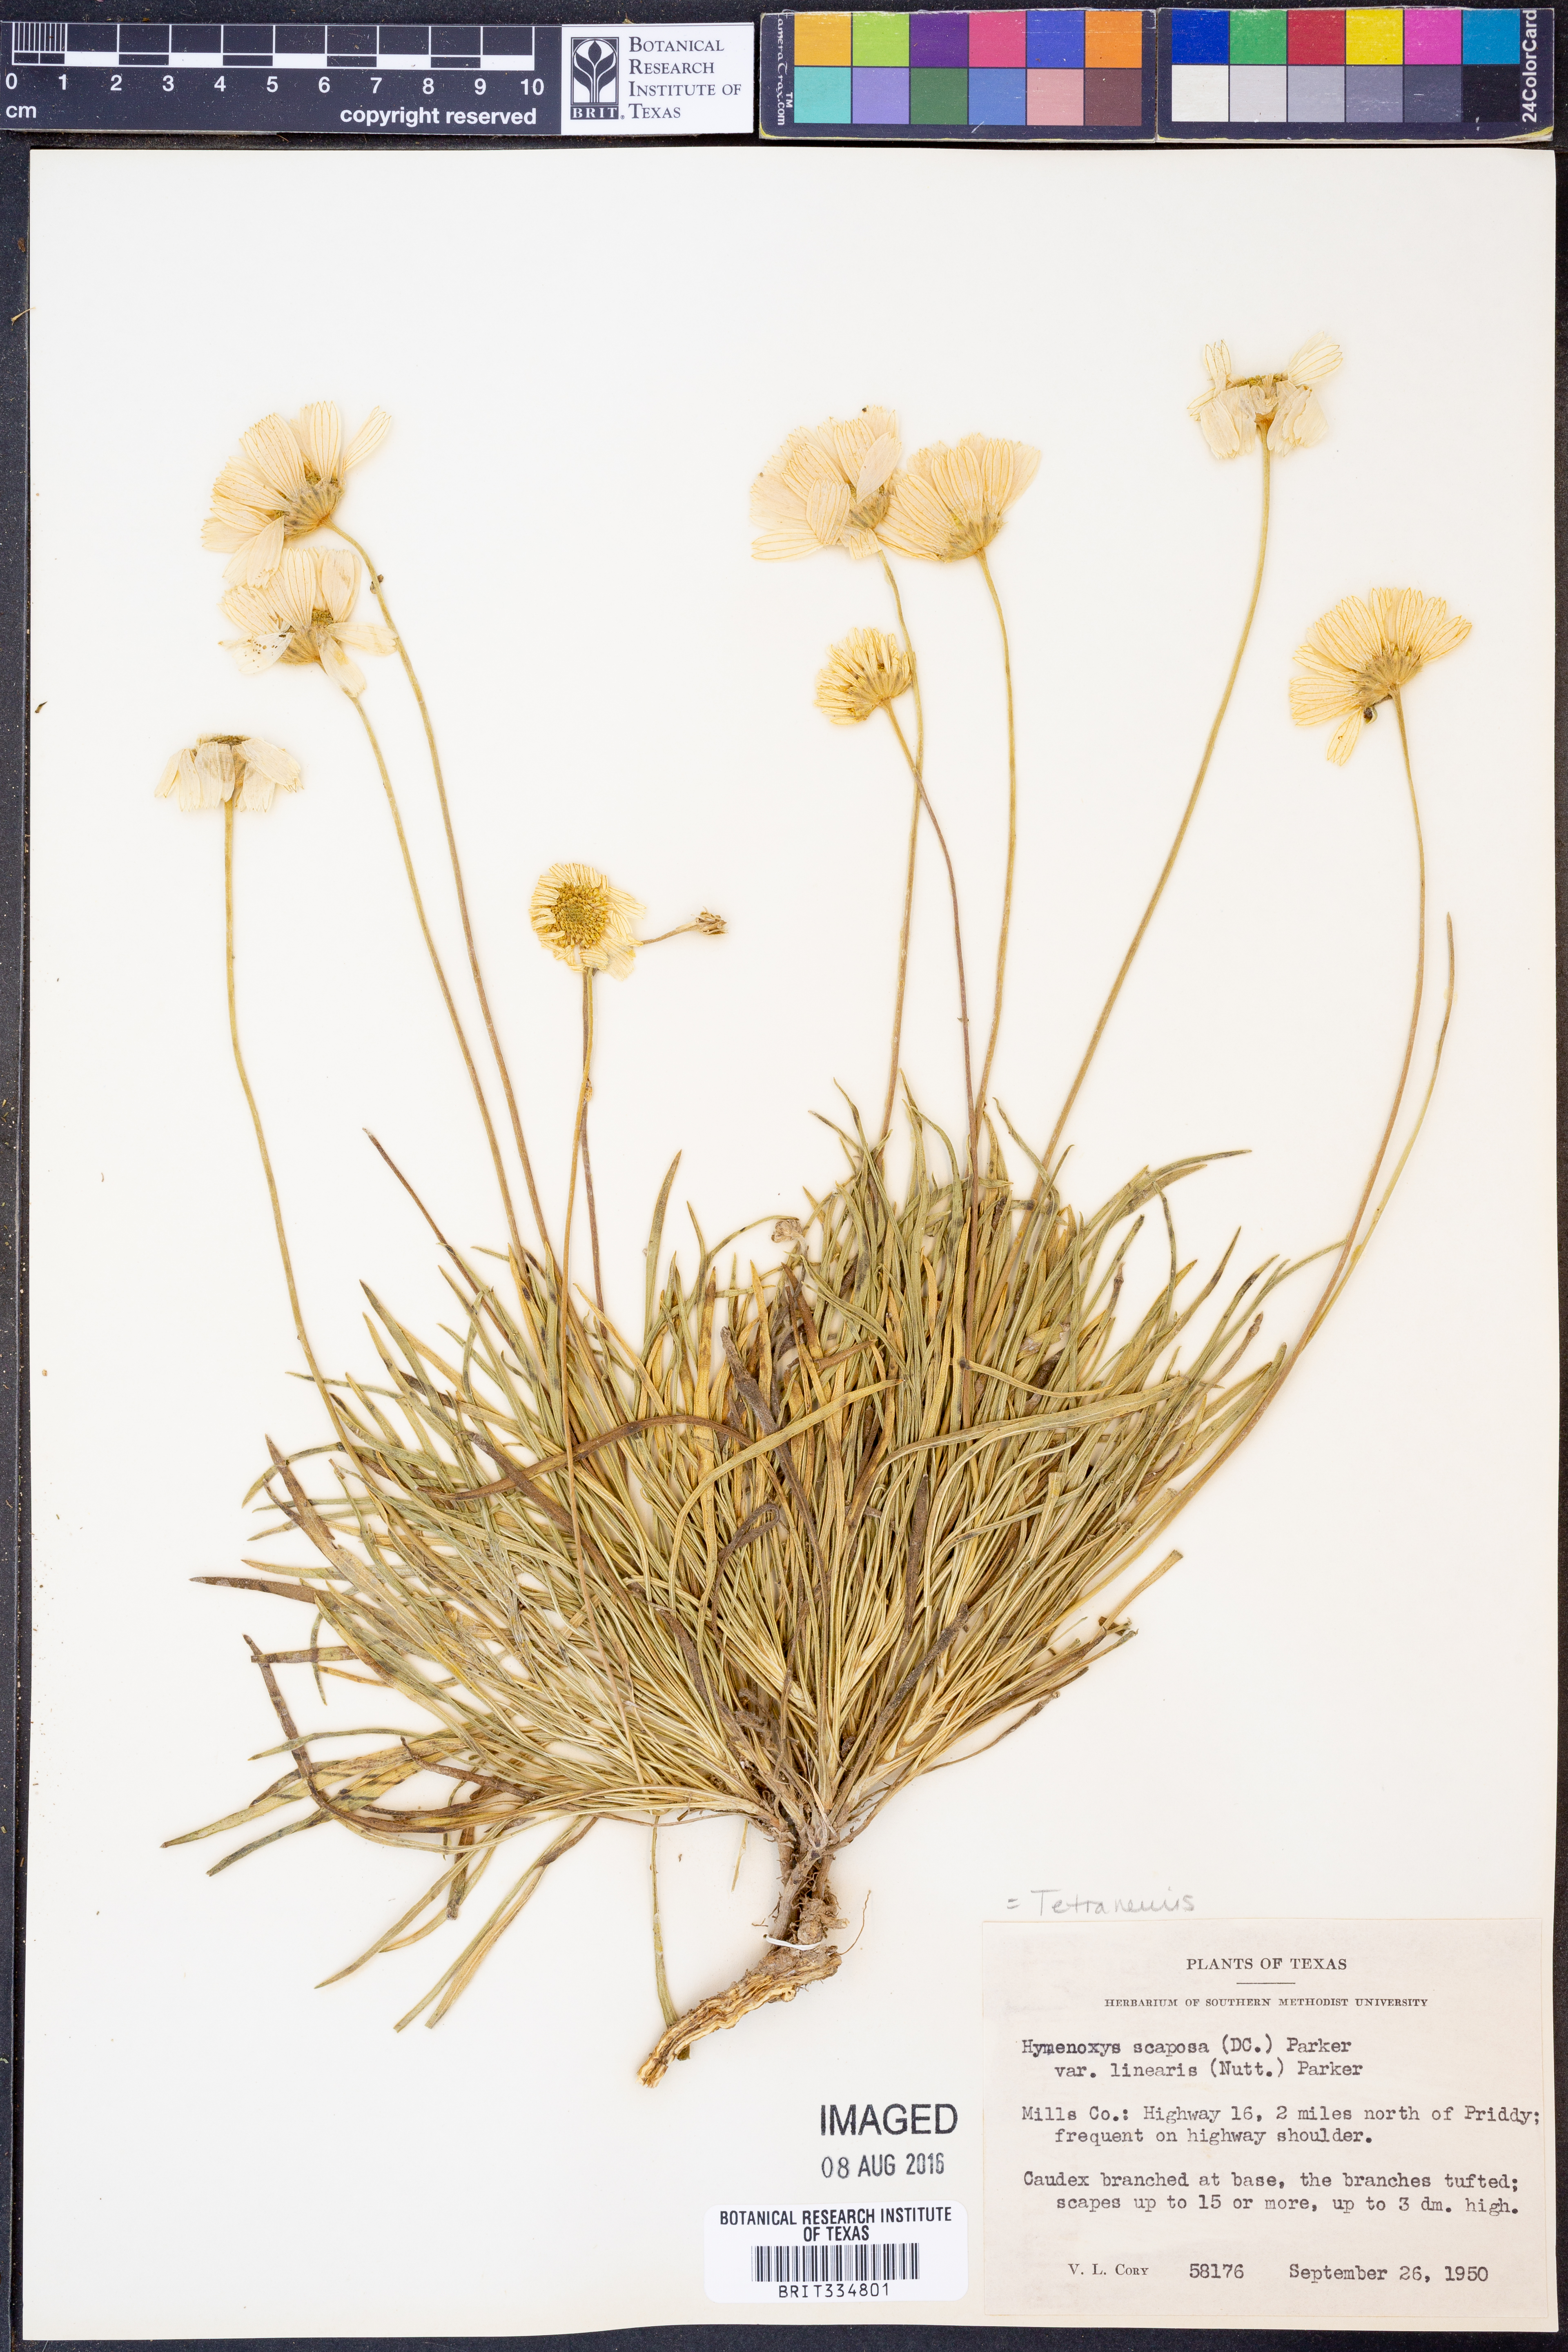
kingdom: Plantae
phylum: Tracheophyta
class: Magnoliopsida
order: Asterales
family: Asteraceae
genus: Tetraneuris
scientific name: Tetraneuris scaposa
